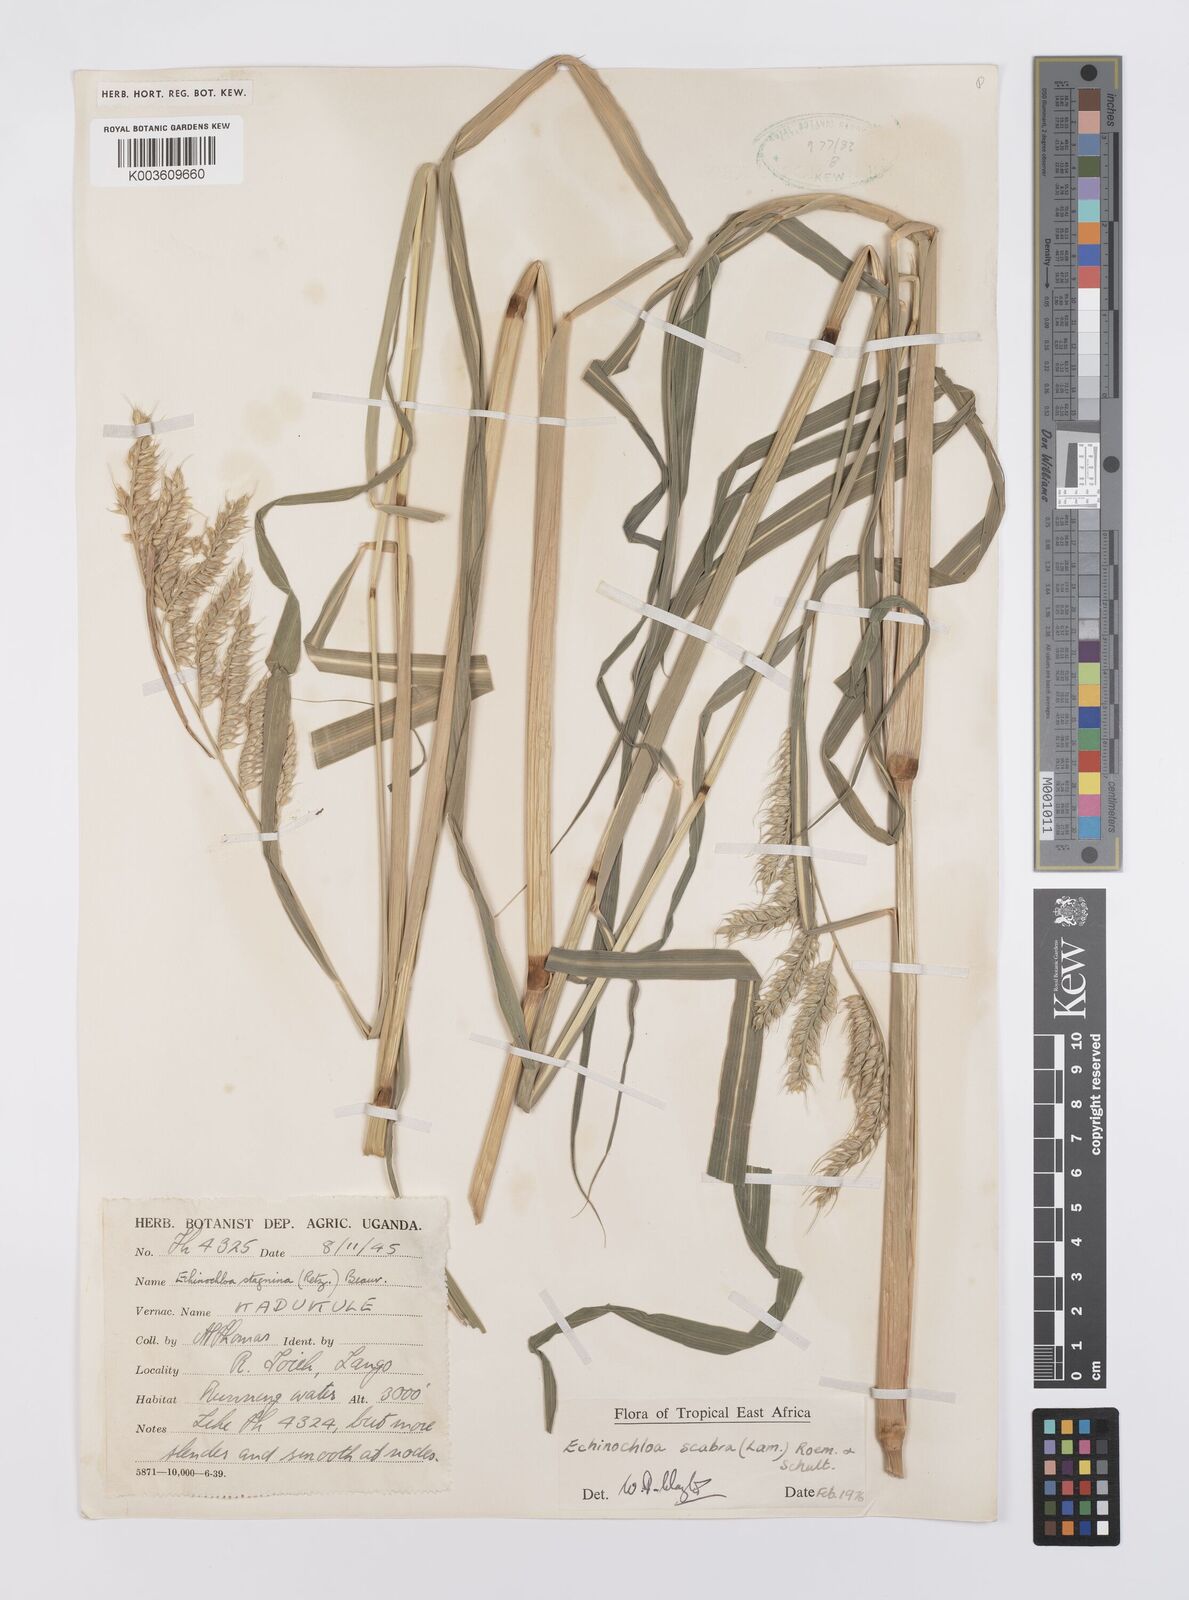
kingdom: Plantae
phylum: Tracheophyta
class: Liliopsida
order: Poales
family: Poaceae
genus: Echinochloa
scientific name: Echinochloa stagnina
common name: Burgu grass
